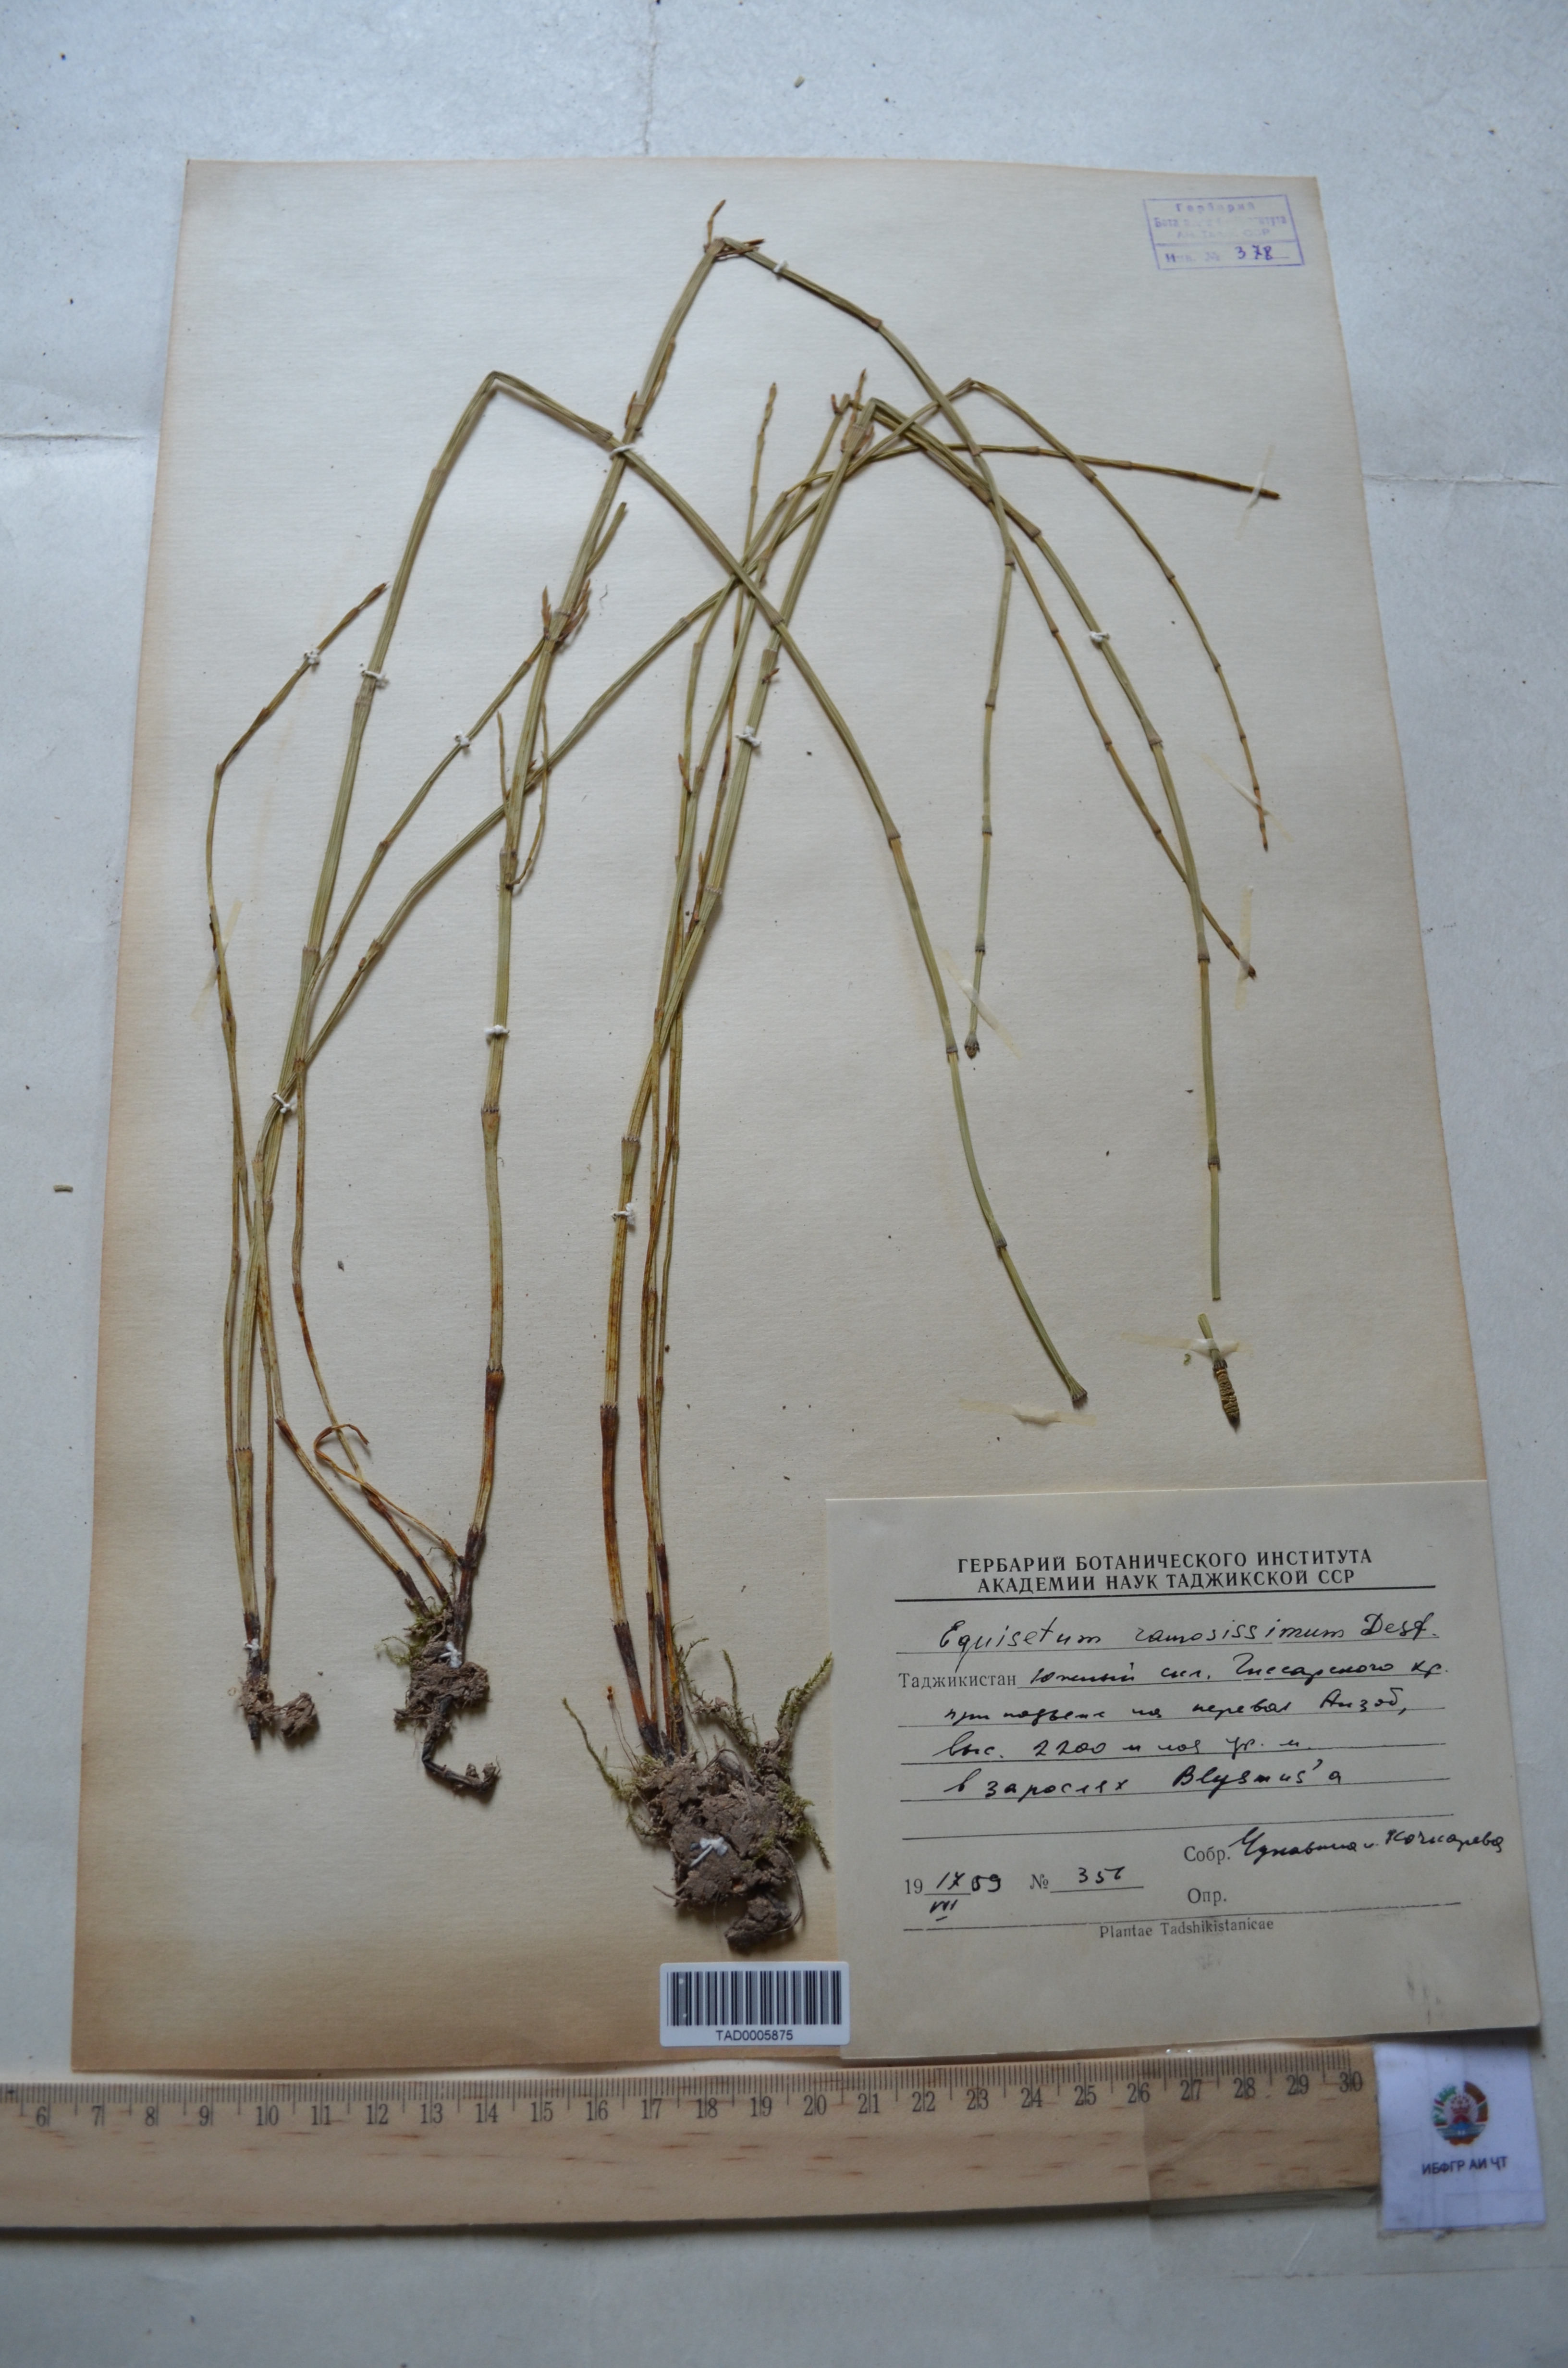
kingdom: Plantae
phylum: Tracheophyta
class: Polypodiopsida
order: Equisetales
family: Equisetaceae
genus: Equisetum
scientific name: Equisetum ramosissimum
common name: Branched horsetail
